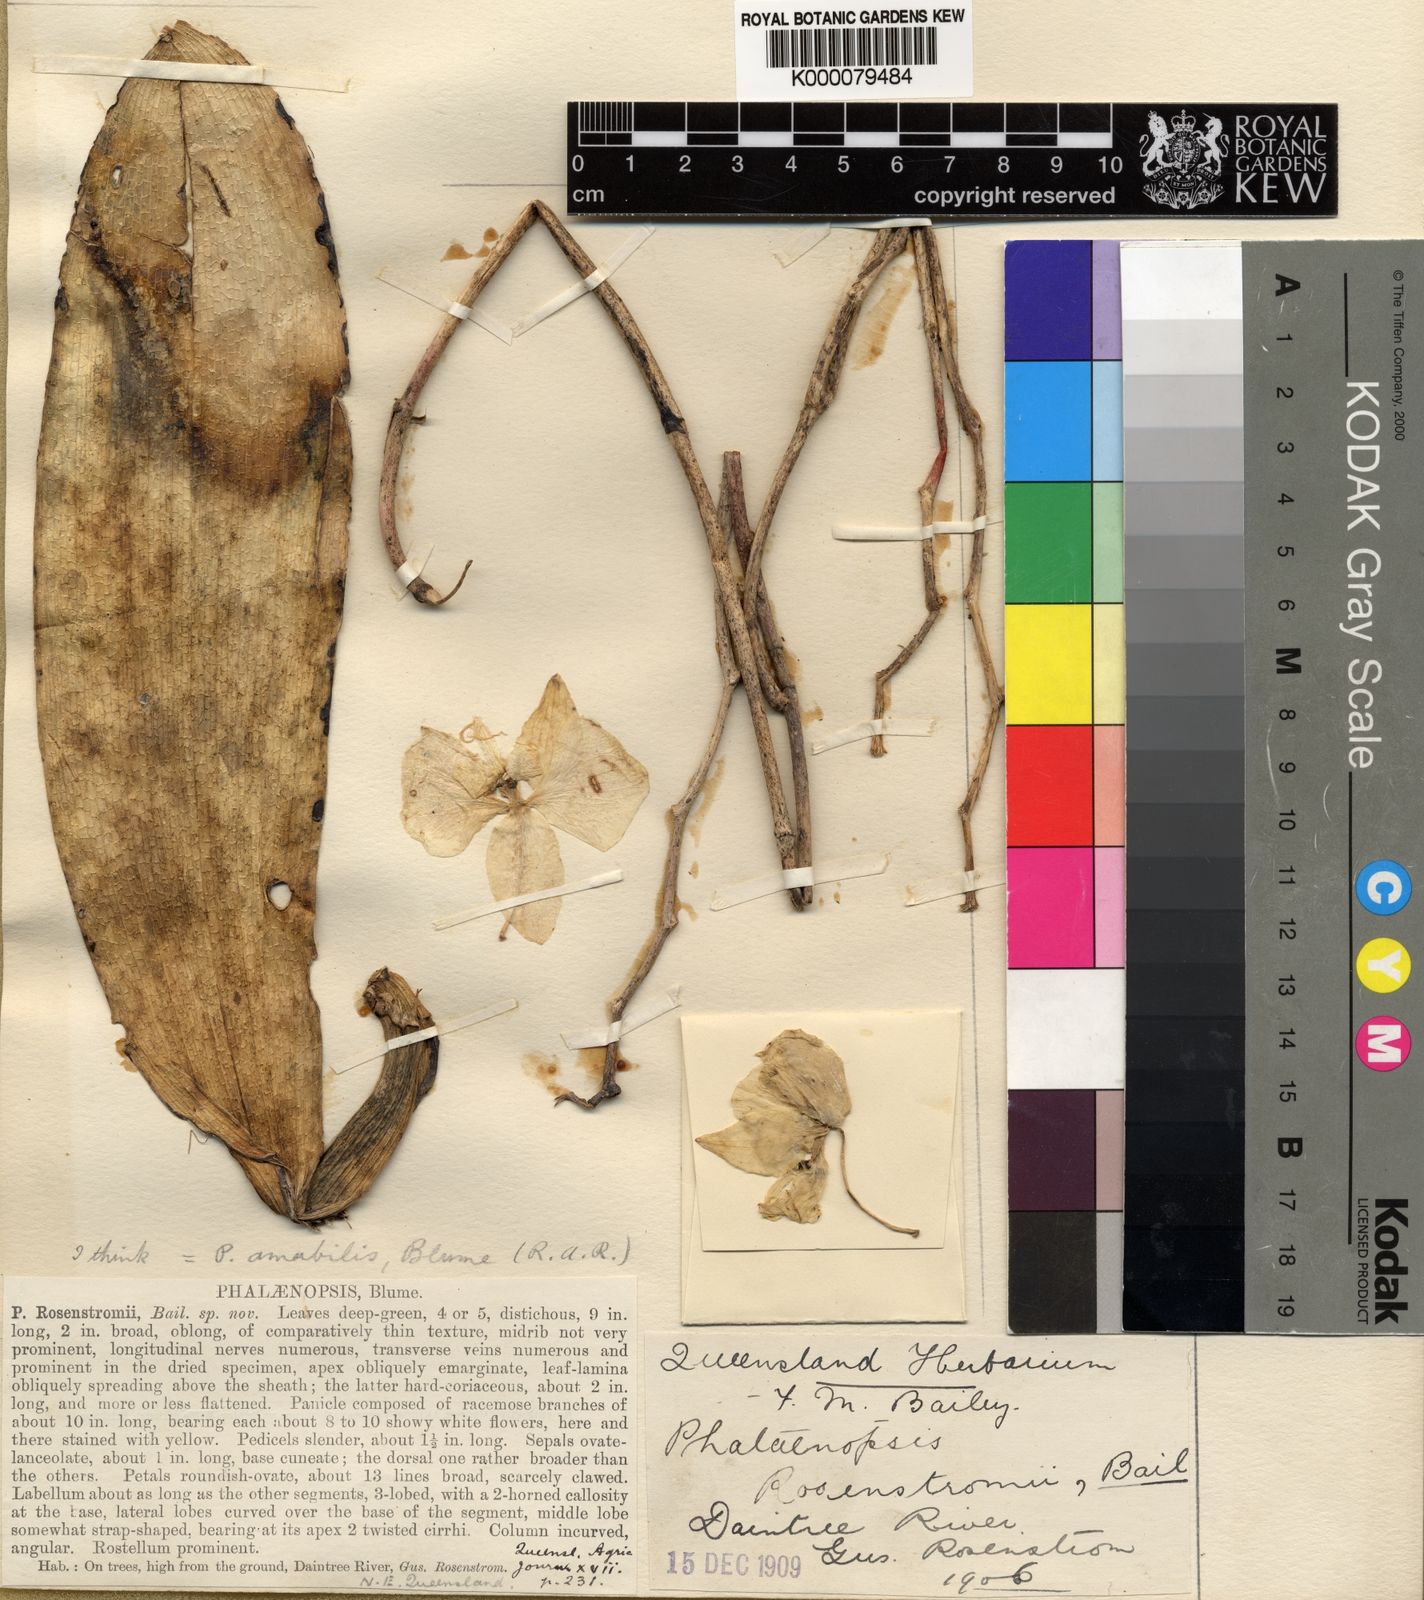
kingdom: Plantae
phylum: Tracheophyta
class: Liliopsida
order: Asparagales
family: Orchidaceae
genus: Phalaenopsis
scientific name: Phalaenopsis amabilis
